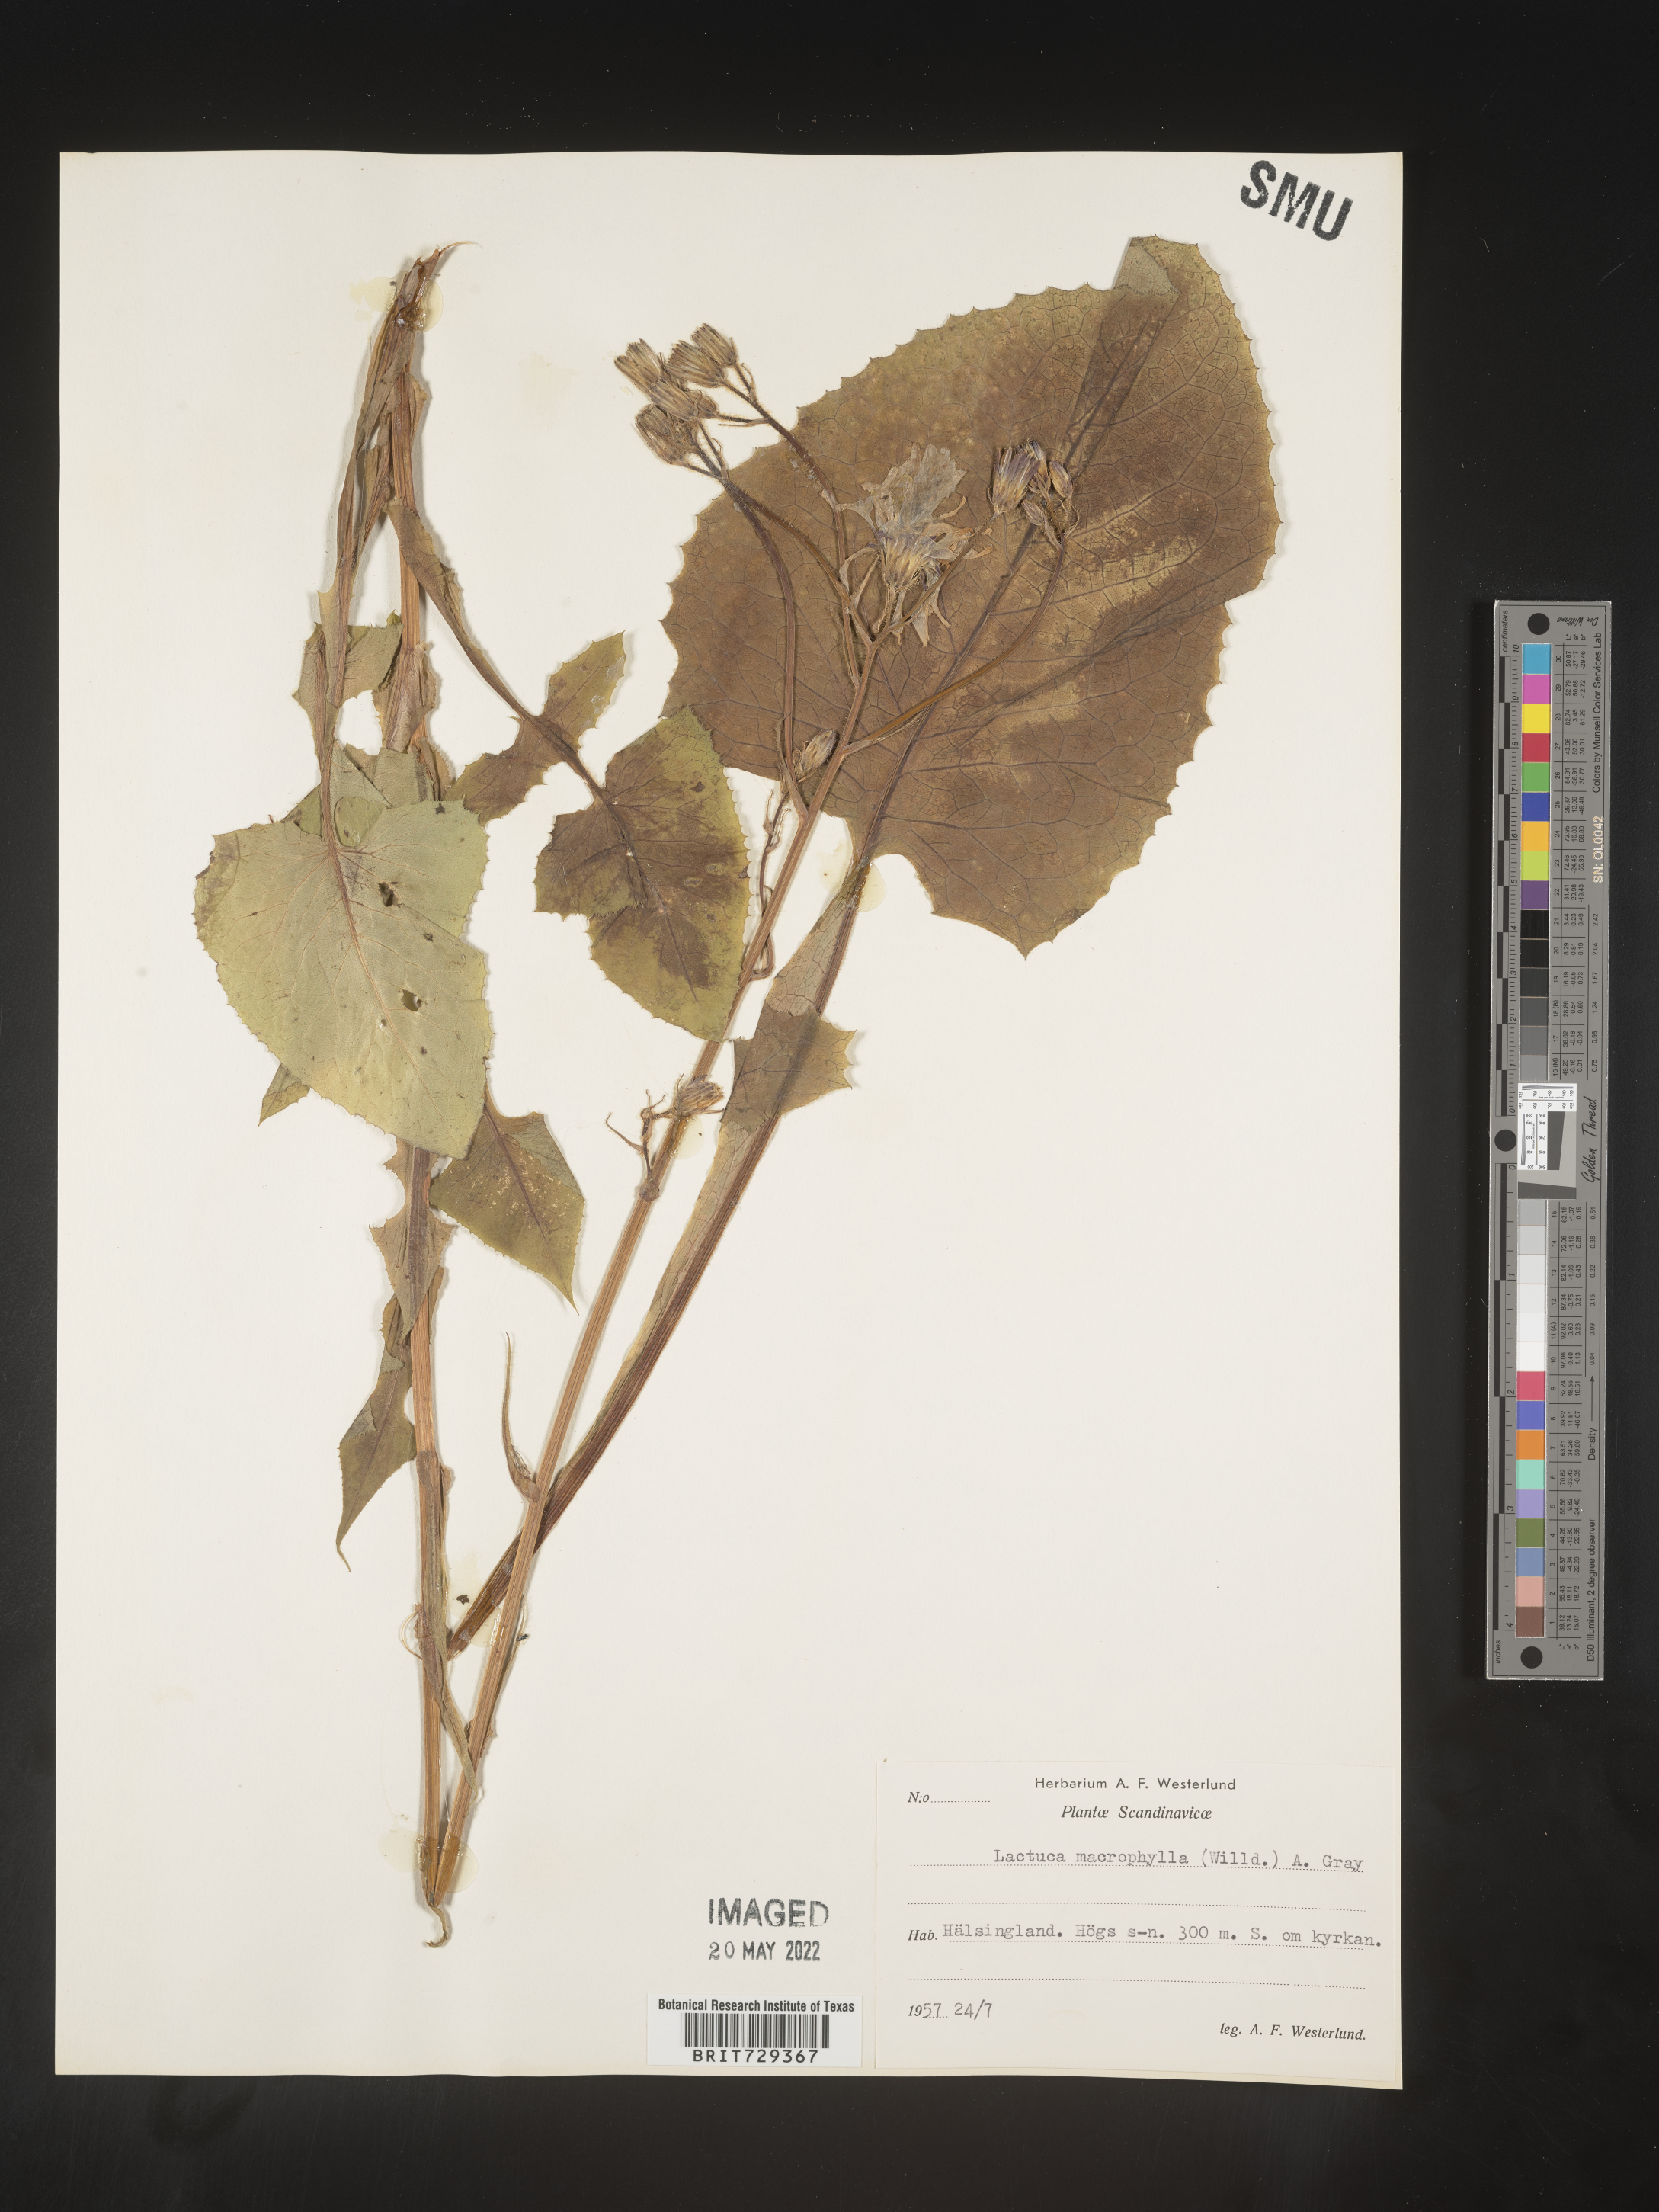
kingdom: Plantae
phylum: Tracheophyta
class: Magnoliopsida
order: Asterales
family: Asteraceae
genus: Lactuca
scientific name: Lactuca
